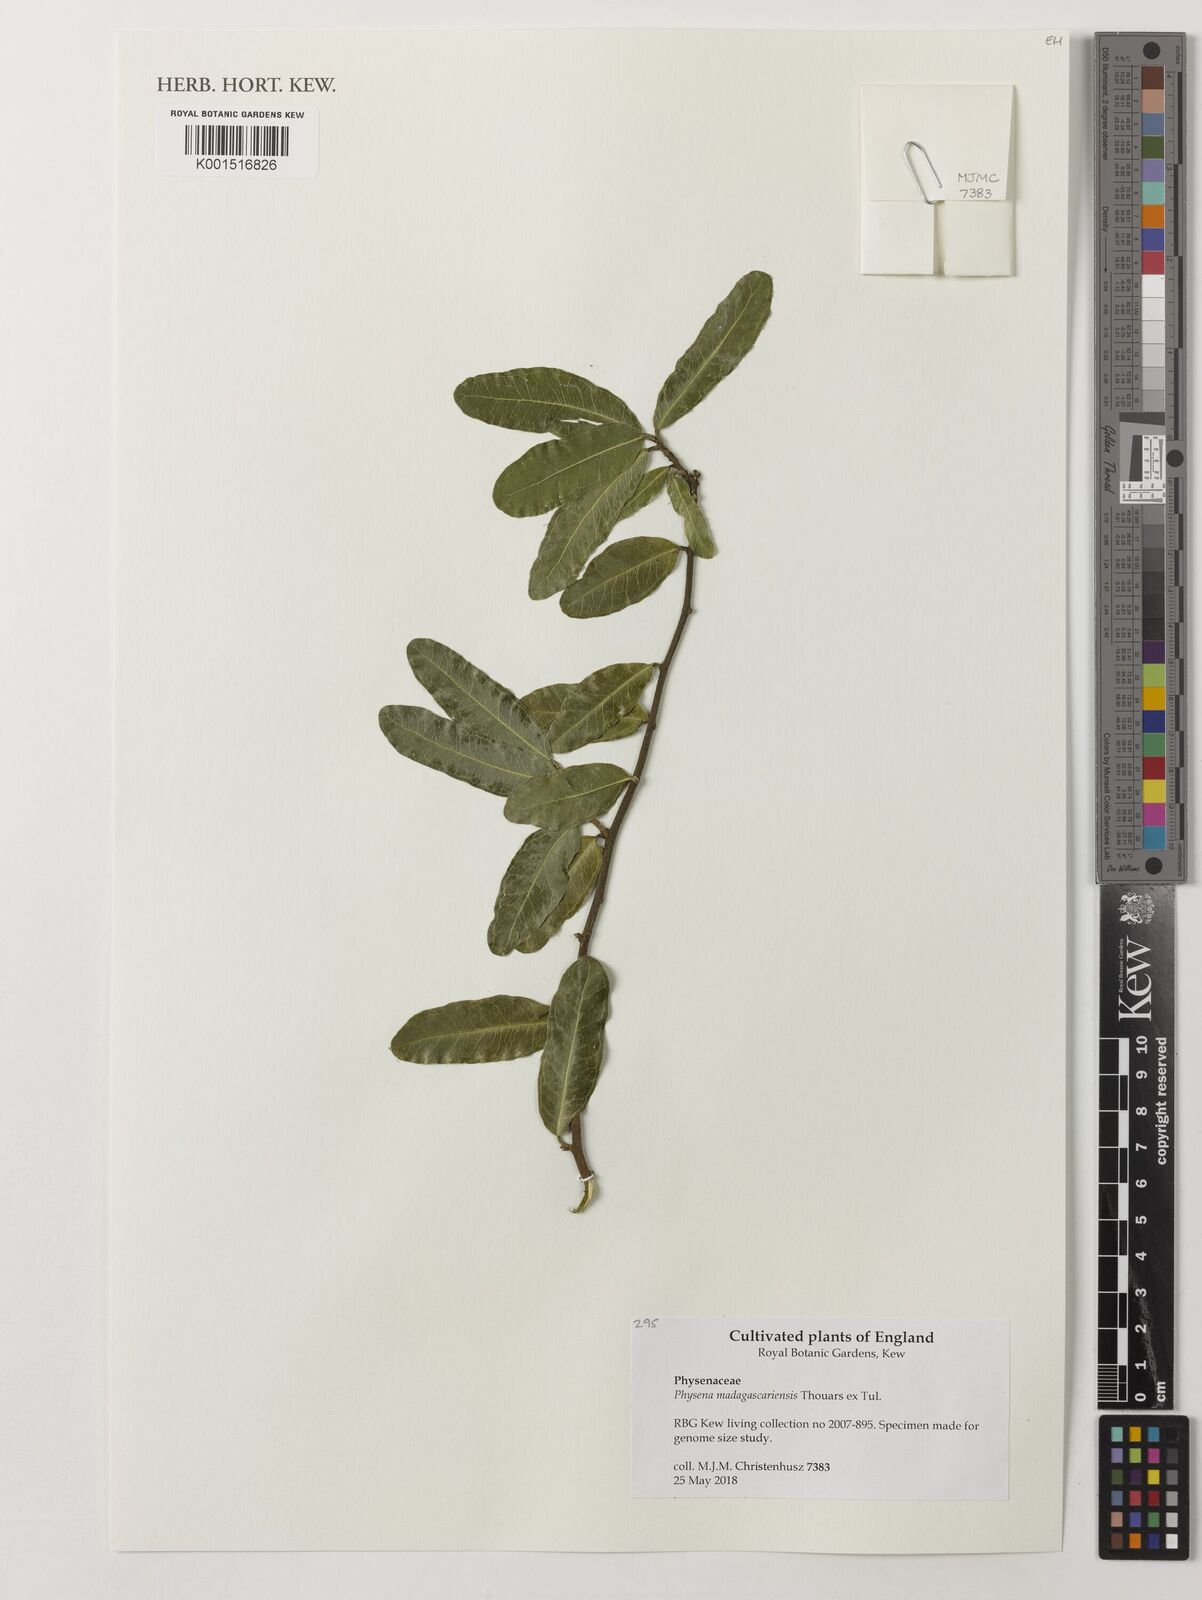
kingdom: Plantae
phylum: Tracheophyta
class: Magnoliopsida
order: Caryophyllales
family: Physenaceae
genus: Physena
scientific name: Physena madagascariensis
